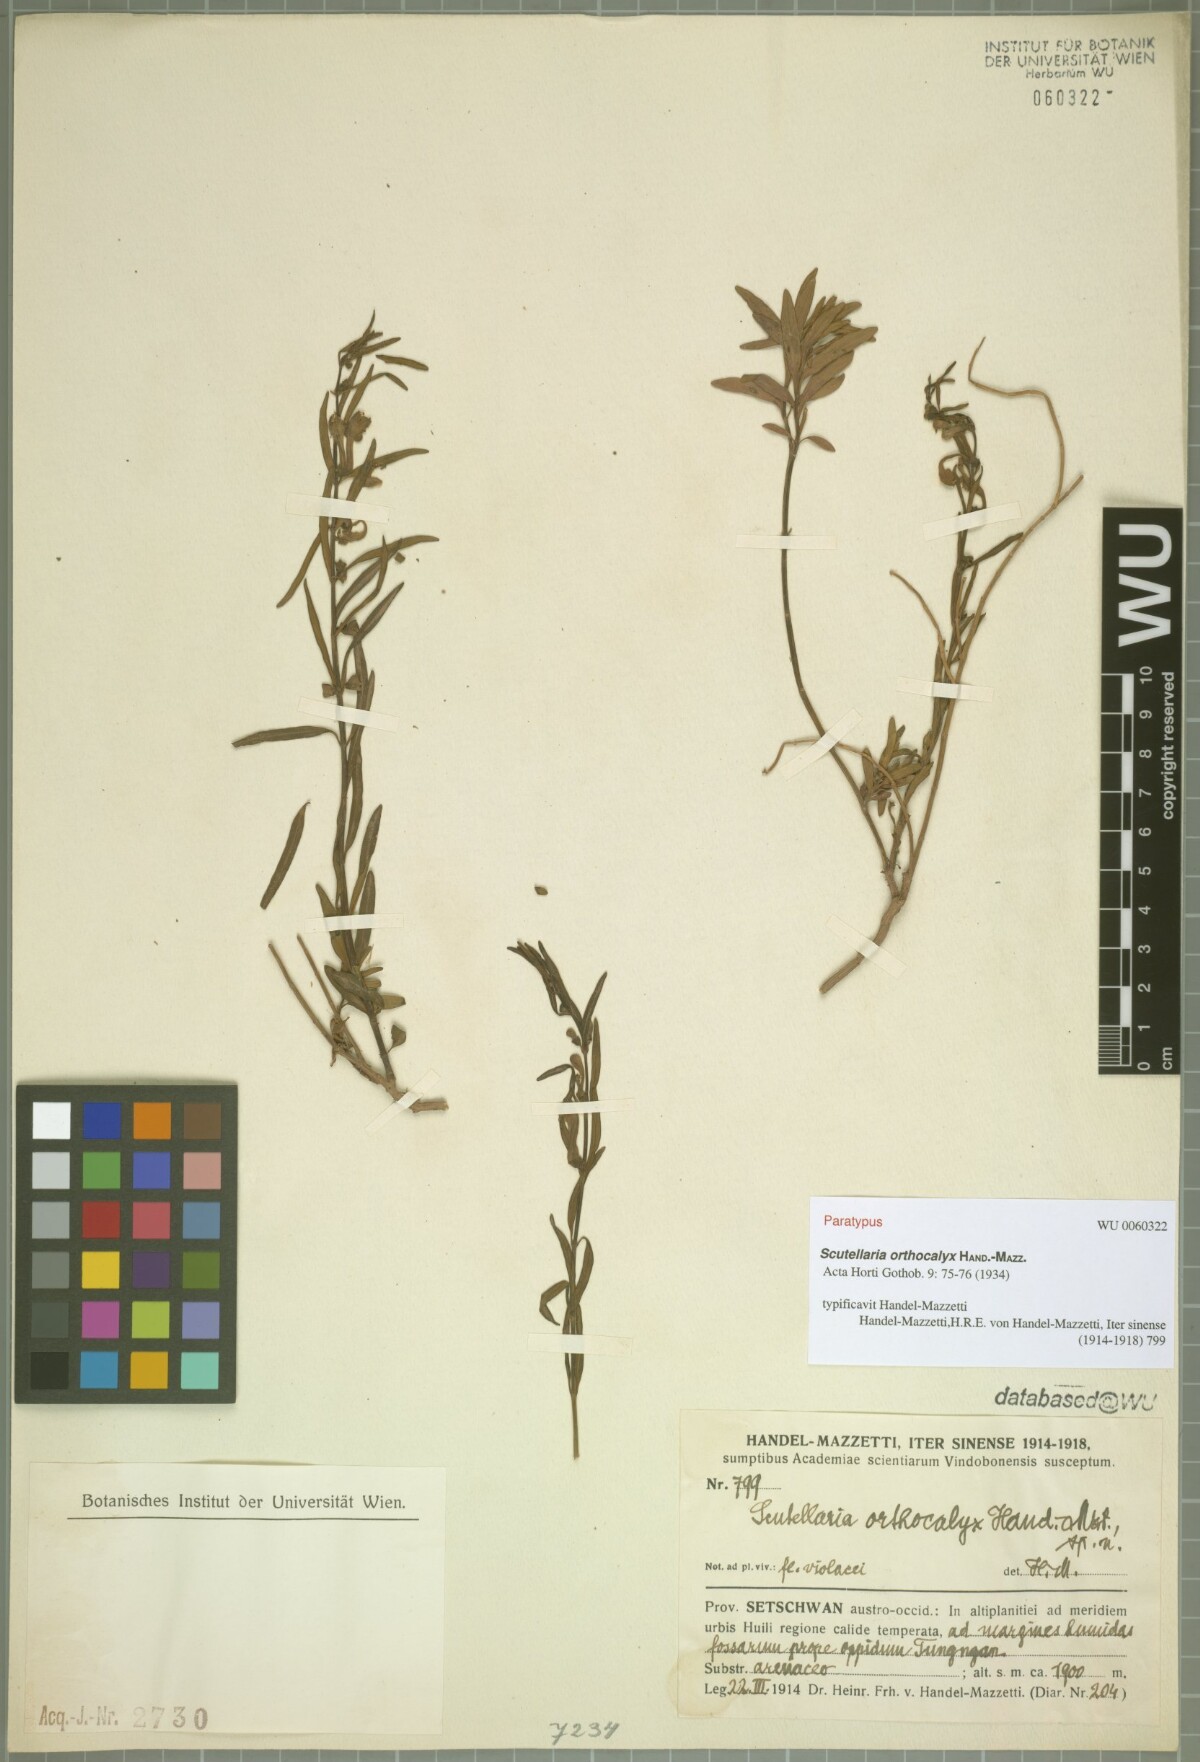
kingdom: Plantae
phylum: Tracheophyta
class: Magnoliopsida
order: Lamiales
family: Lamiaceae
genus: Scutellaria
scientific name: Scutellaria orthocalyx
